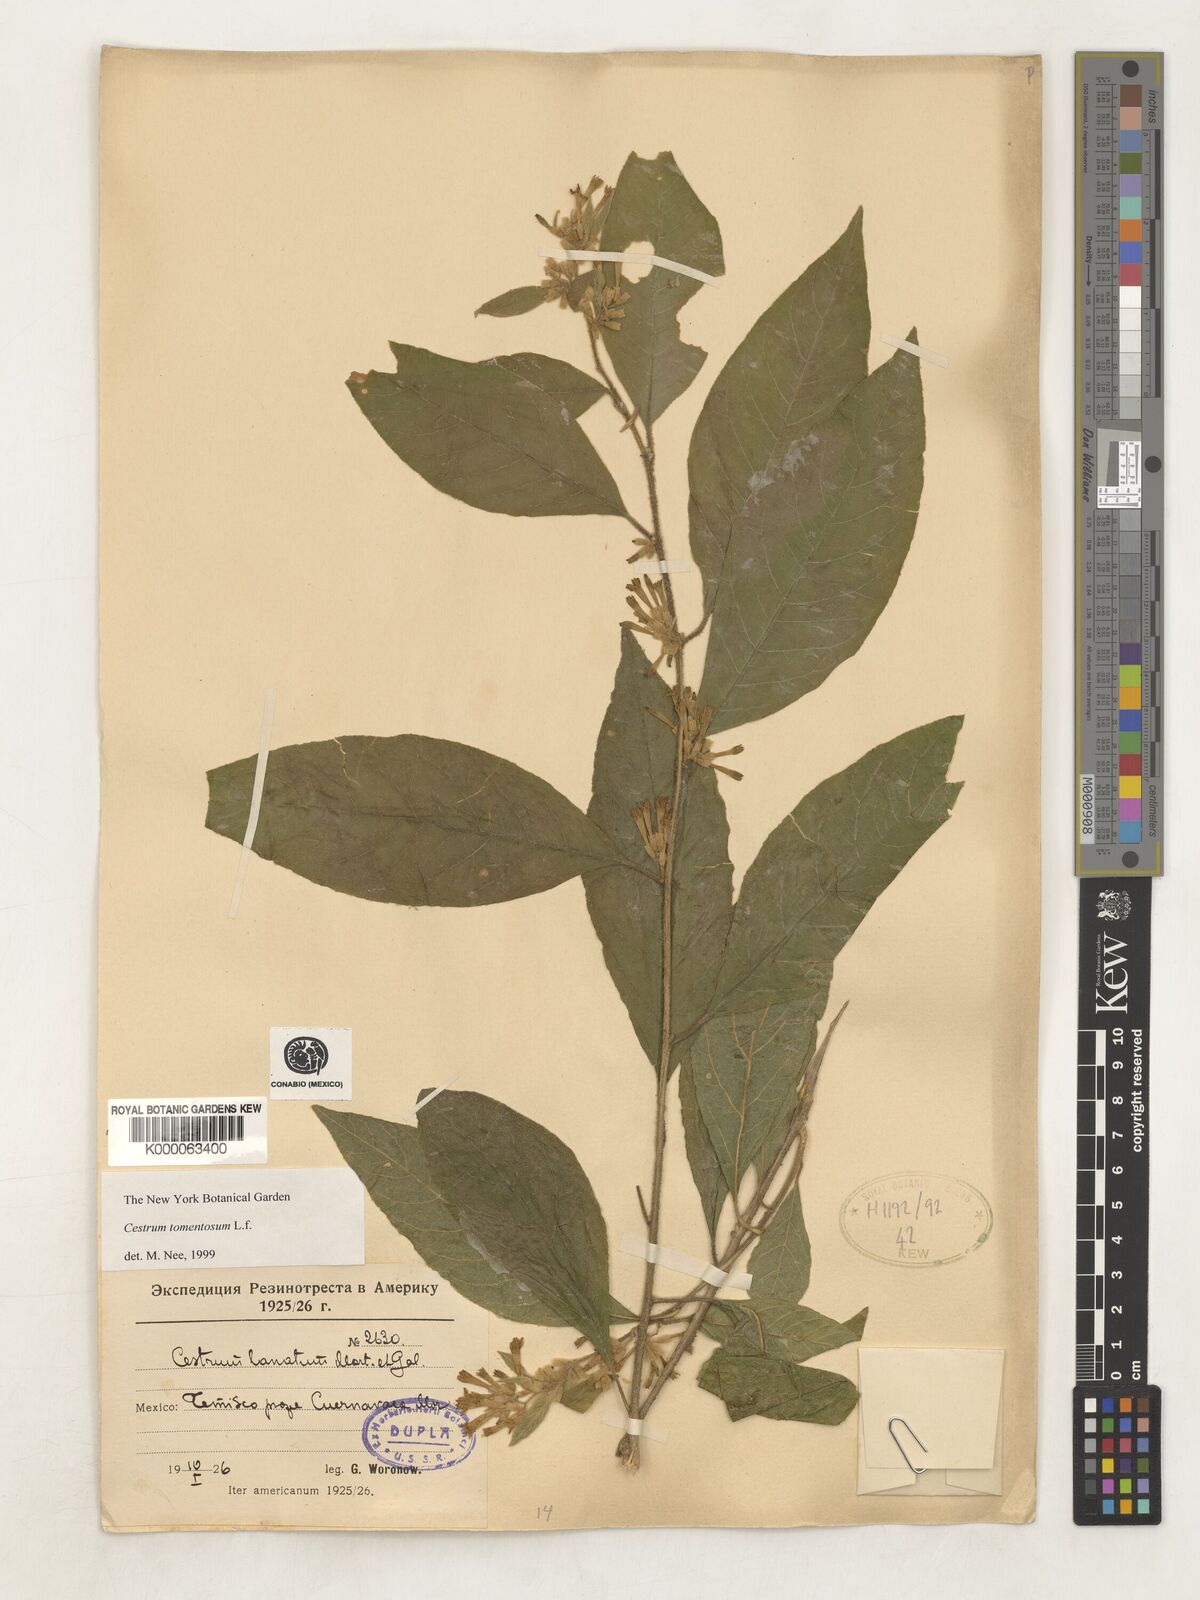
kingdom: Plantae
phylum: Tracheophyta
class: Magnoliopsida
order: Solanales
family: Solanaceae
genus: Cestrum
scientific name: Cestrum tomentosum
